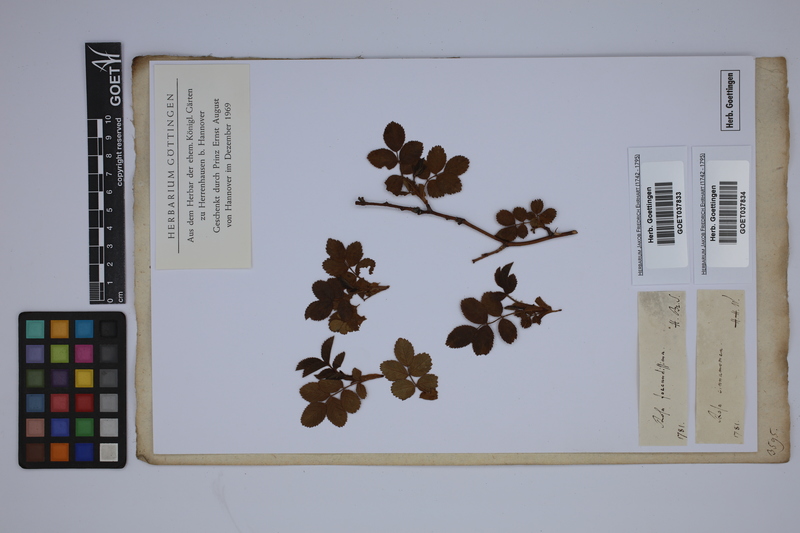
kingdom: Plantae
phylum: Tracheophyta
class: Magnoliopsida
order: Rosales
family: Rosaceae
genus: Rosa
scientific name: Rosa cinnamomea
